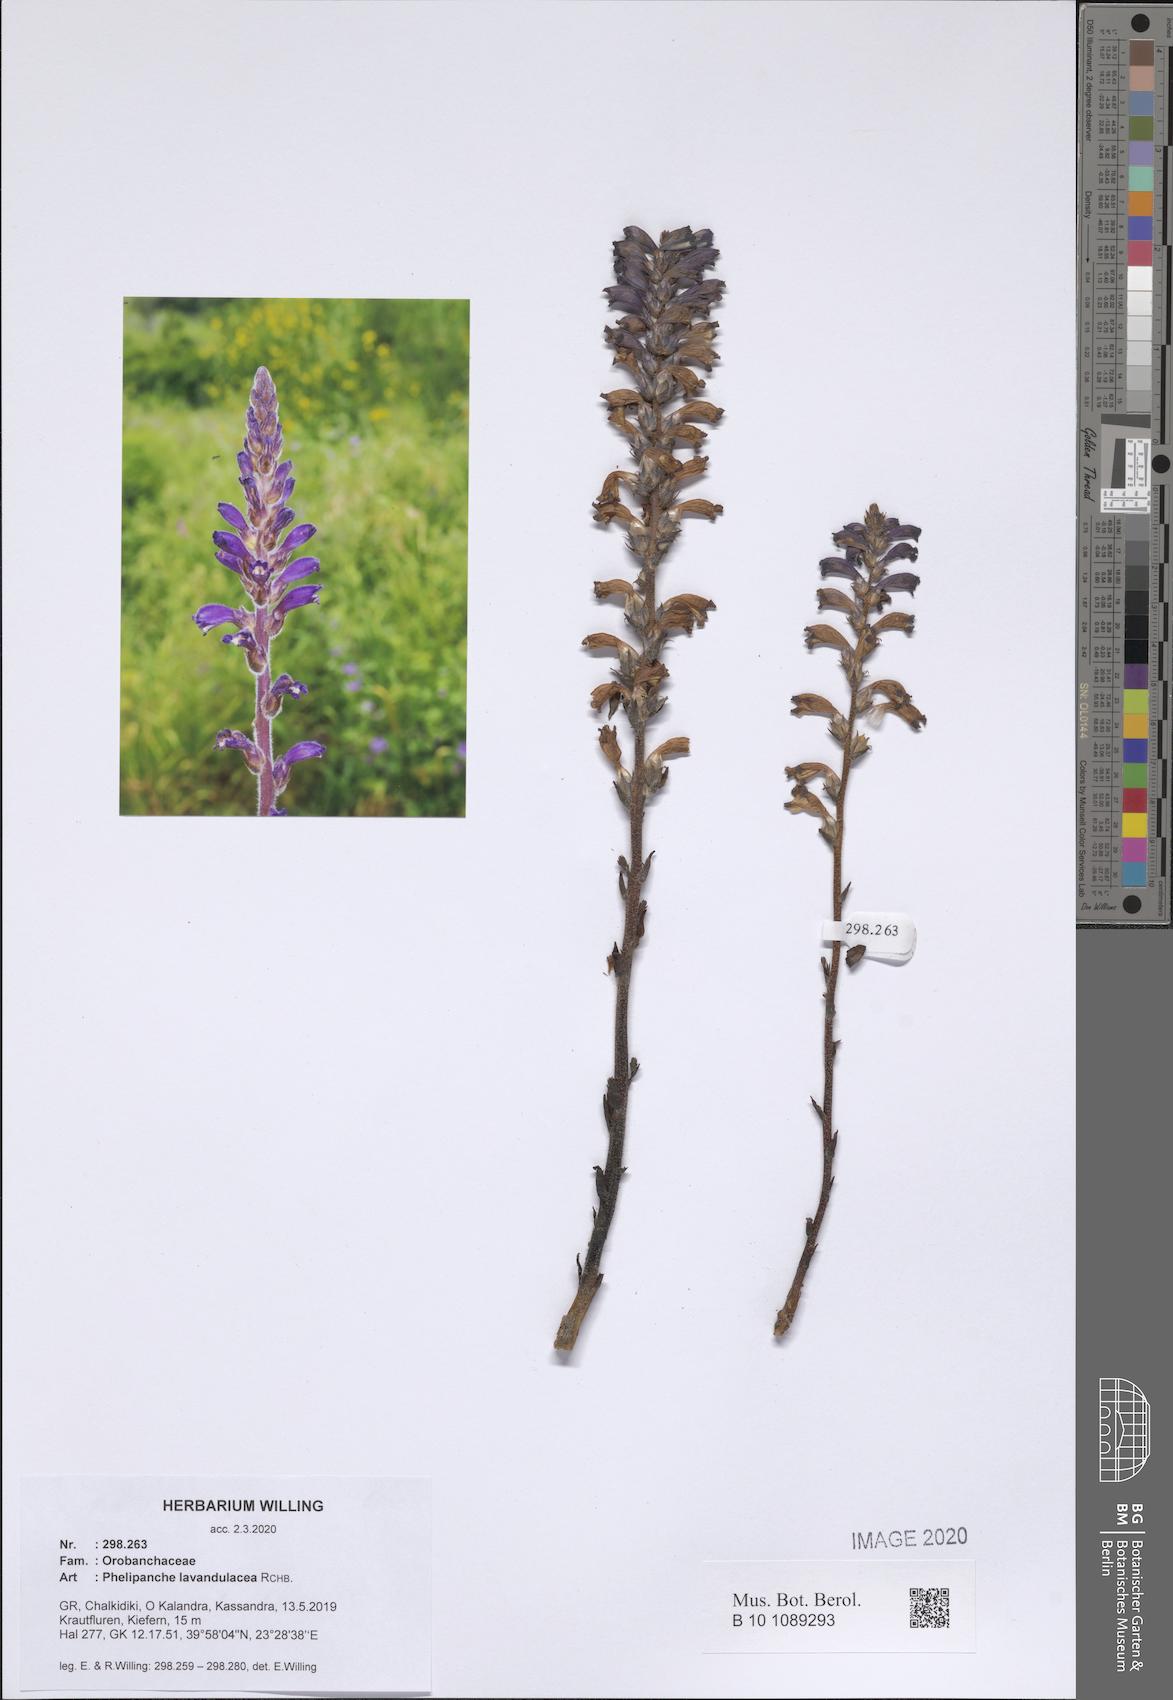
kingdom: Plantae
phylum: Tracheophyta
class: Magnoliopsida
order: Lamiales
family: Orobanchaceae
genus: Phelipanche
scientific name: Phelipanche lavandulacea
